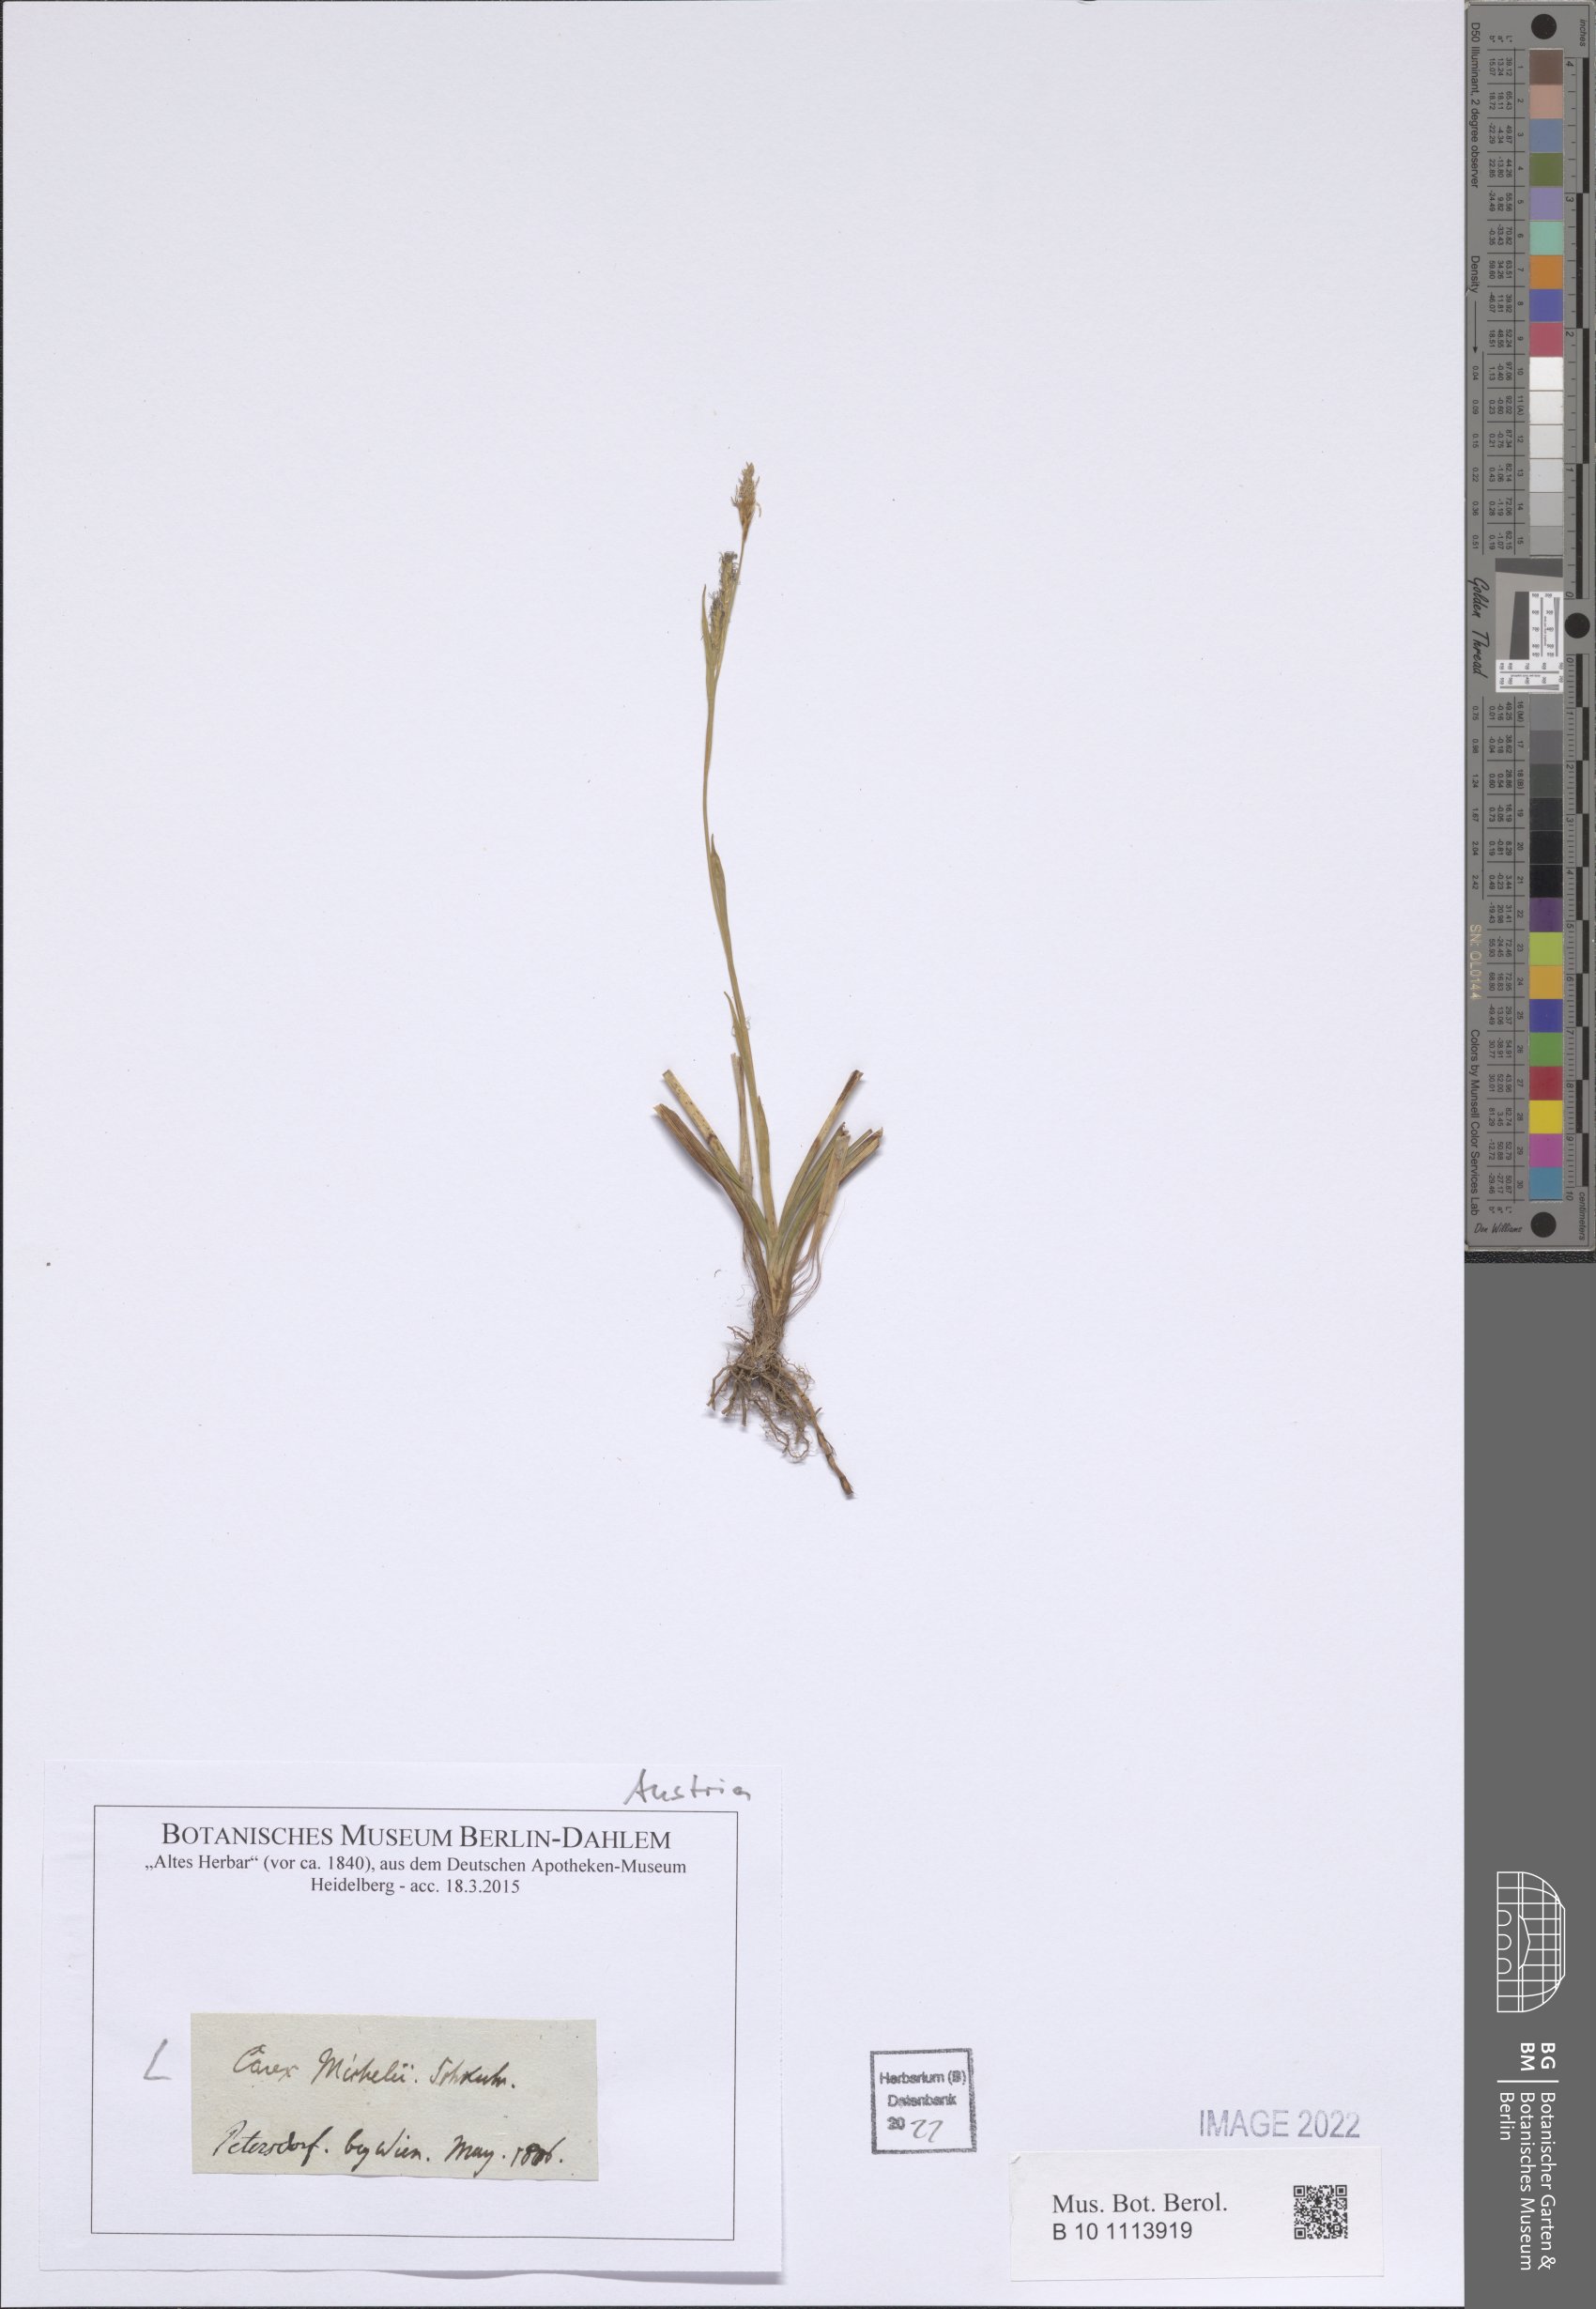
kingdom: Plantae
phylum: Tracheophyta
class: Liliopsida
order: Poales
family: Cyperaceae
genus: Carex
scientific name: Carex michelii
